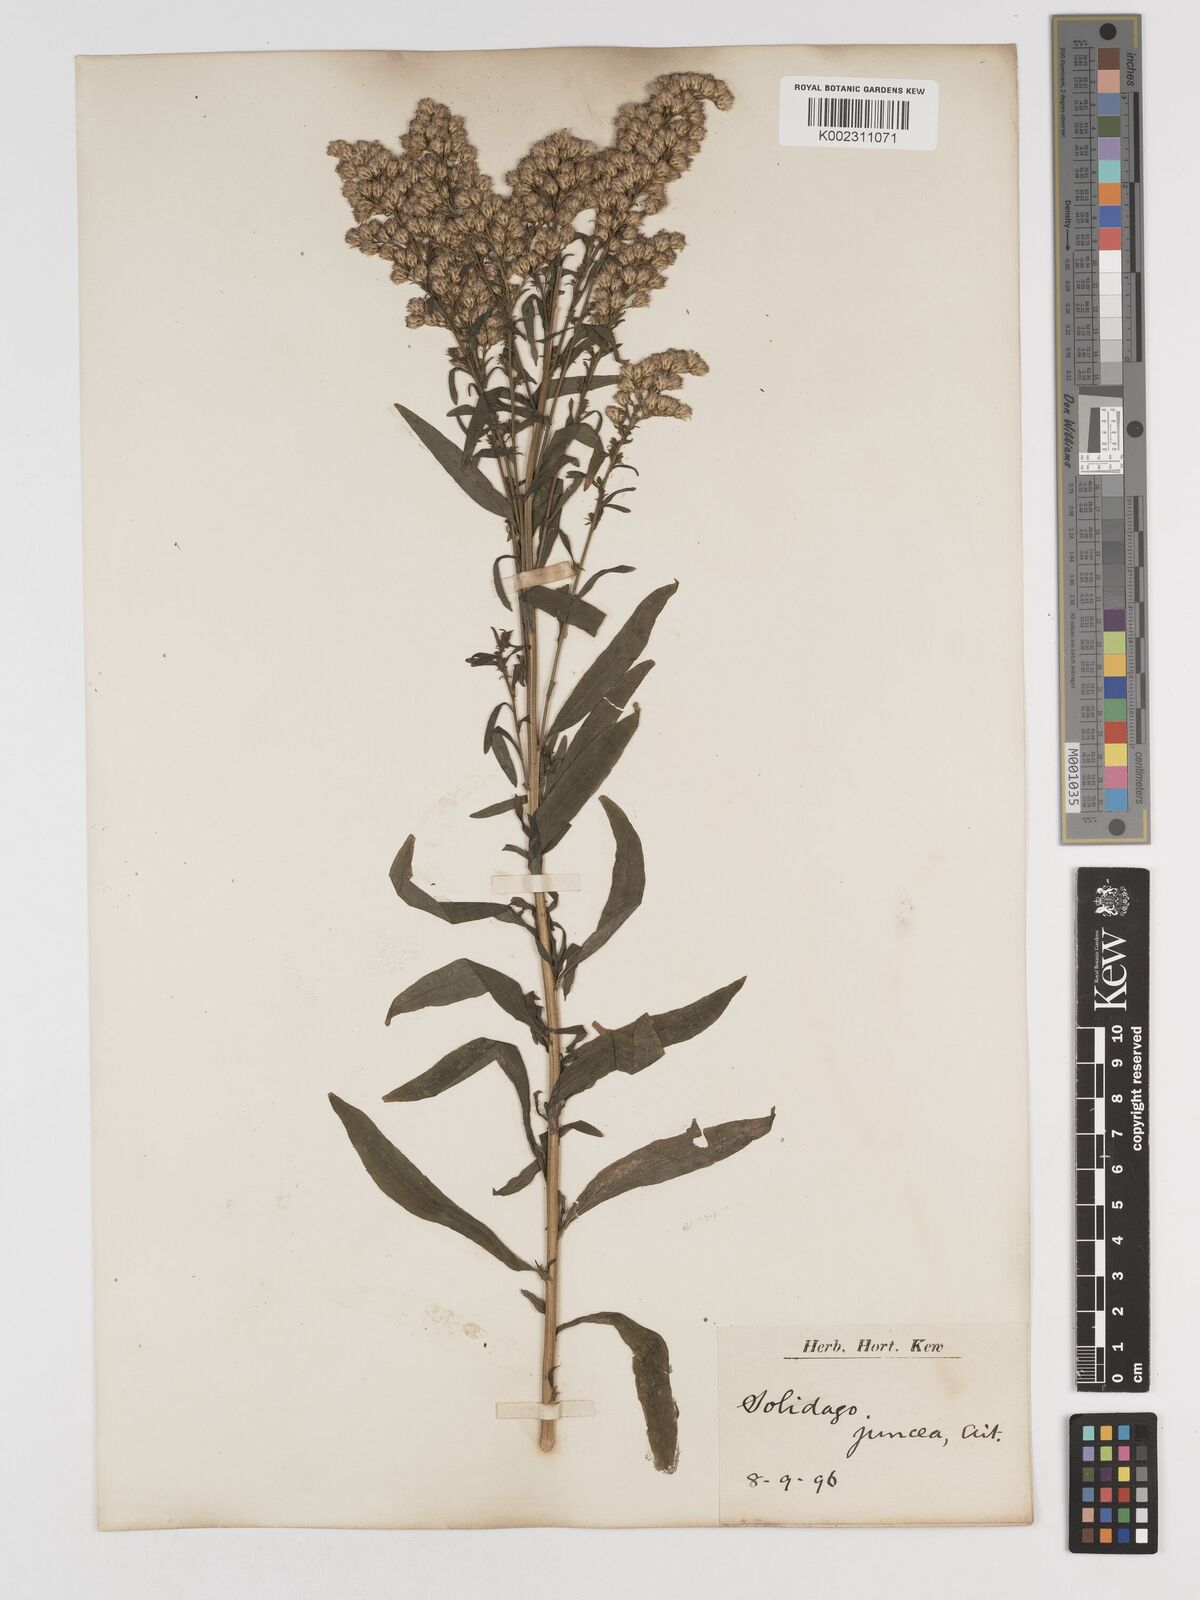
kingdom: Plantae
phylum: Tracheophyta
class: Magnoliopsida
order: Asterales
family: Asteraceae
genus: Solidago
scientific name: Solidago juncea
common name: Early goldenrod
